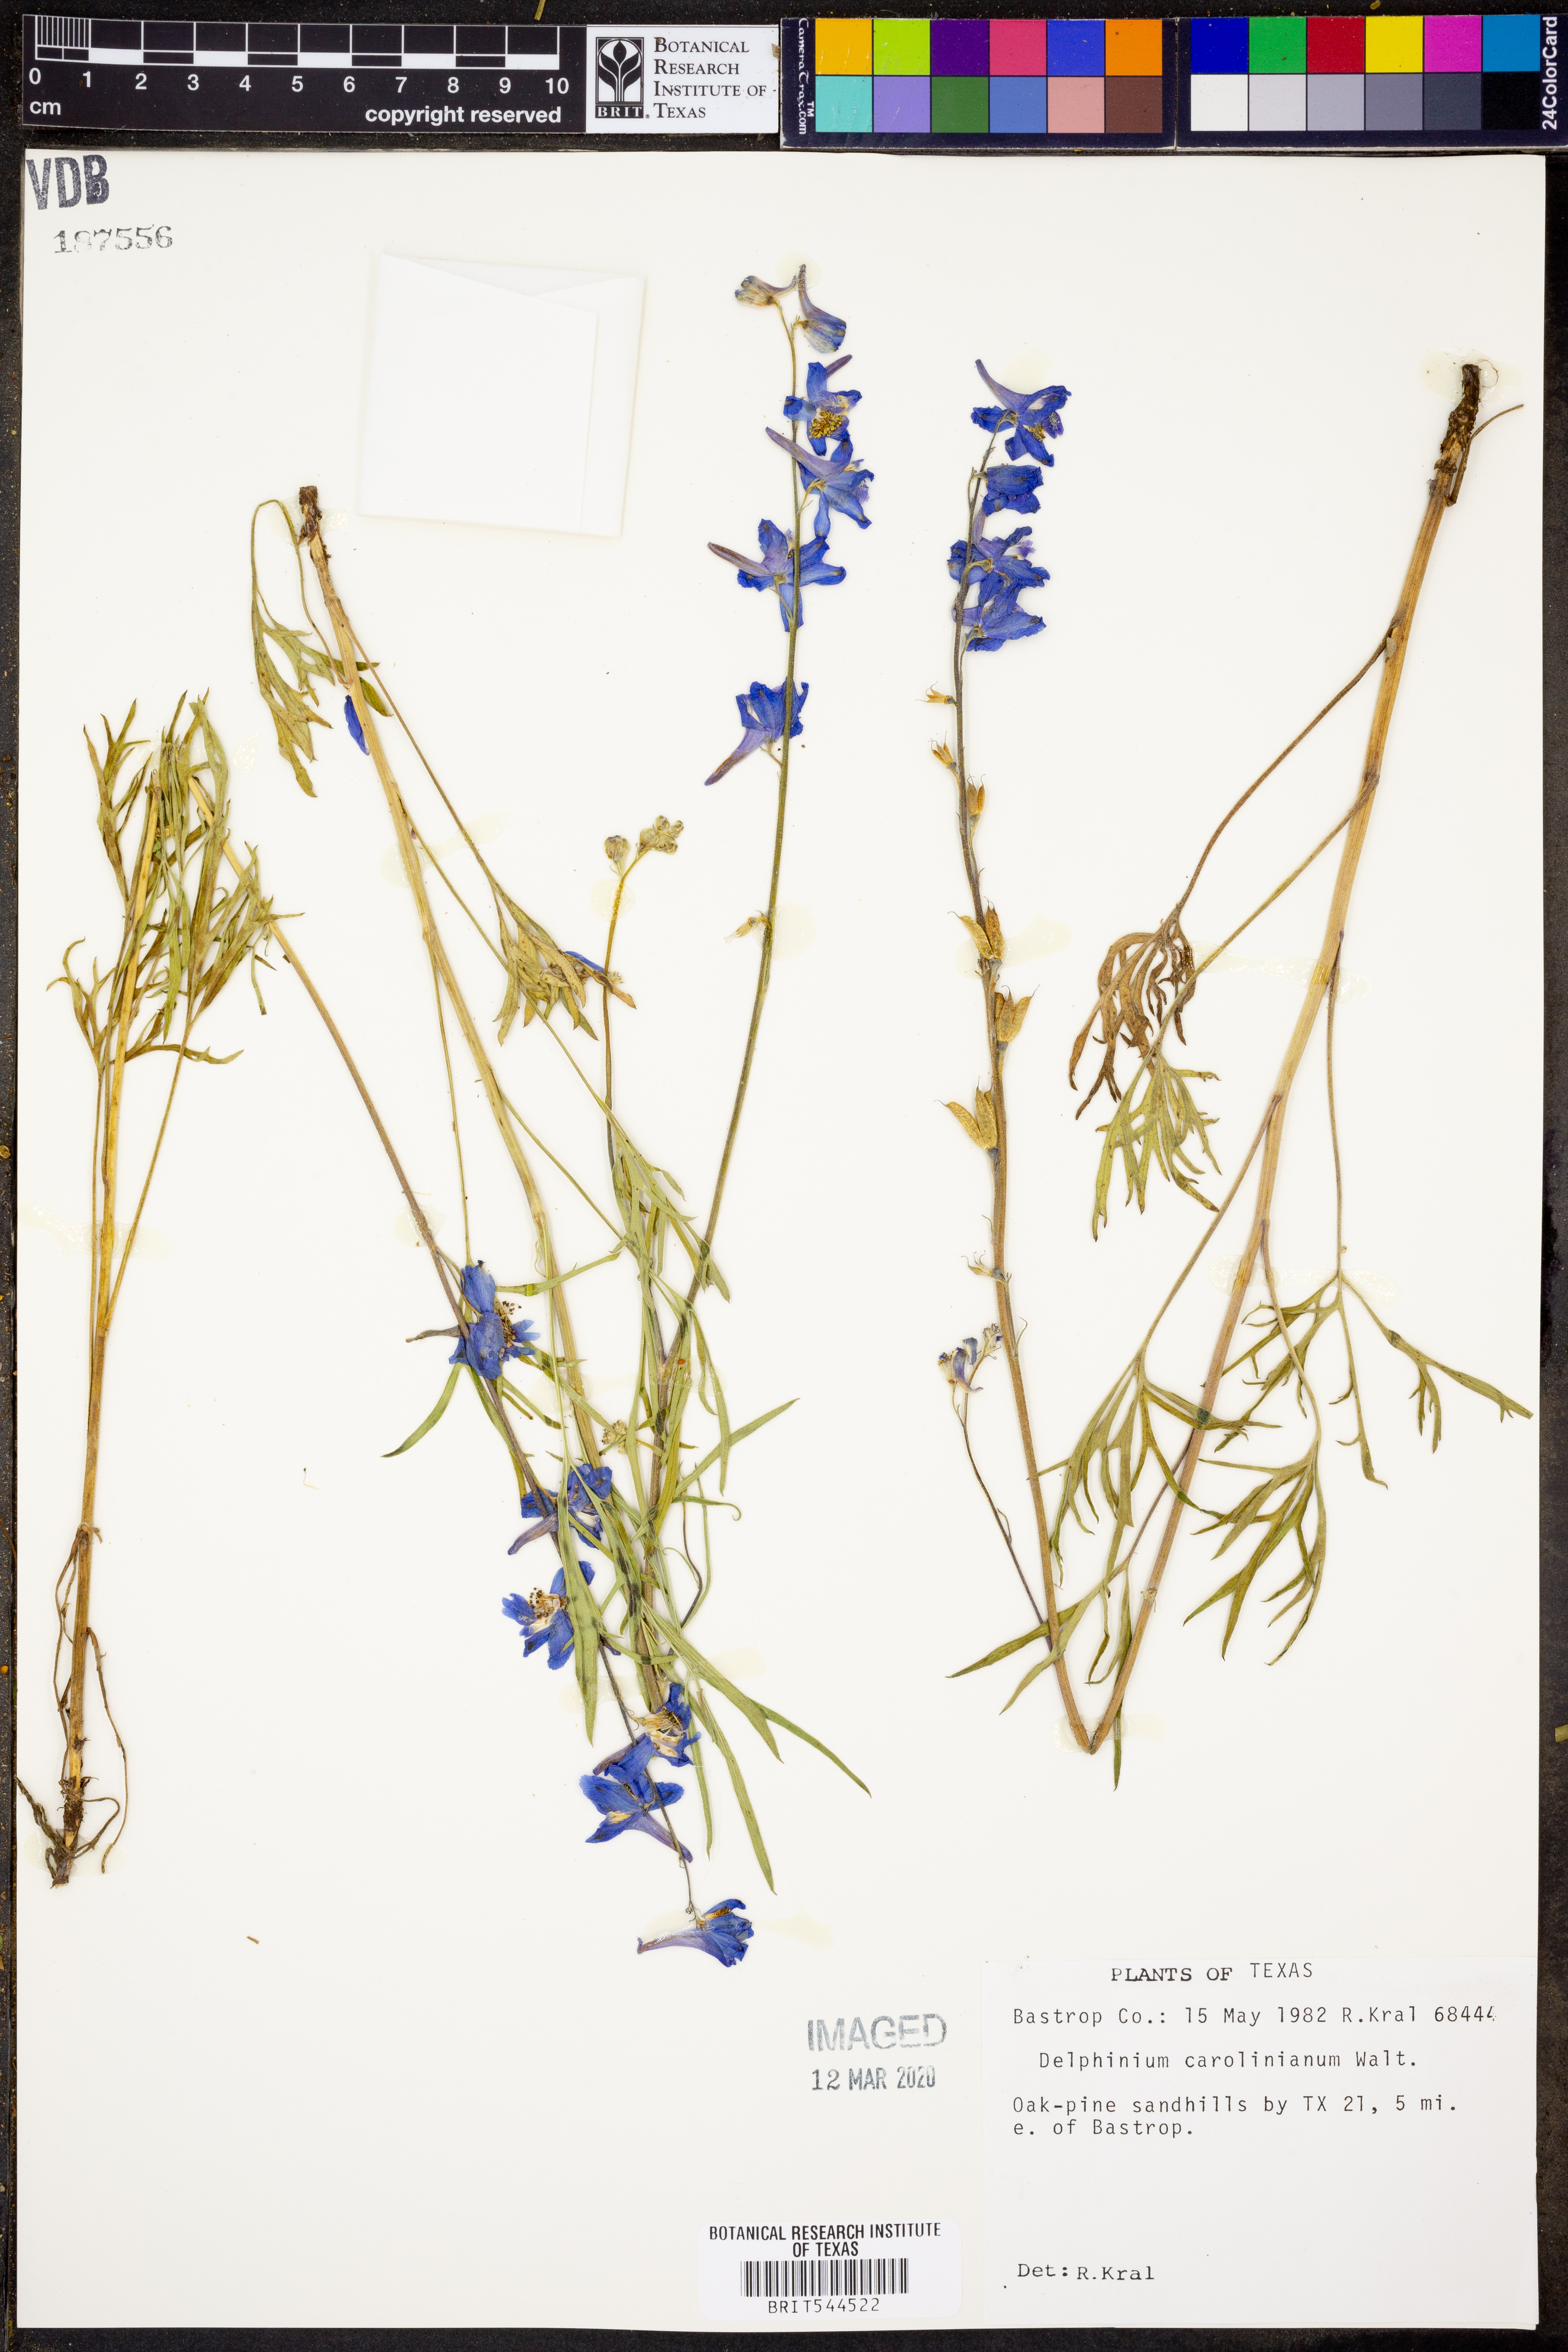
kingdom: Plantae
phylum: Tracheophyta
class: Magnoliopsida
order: Ranunculales
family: Ranunculaceae
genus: Delphinium
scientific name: Delphinium carolinianum
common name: Carolina larkspur
